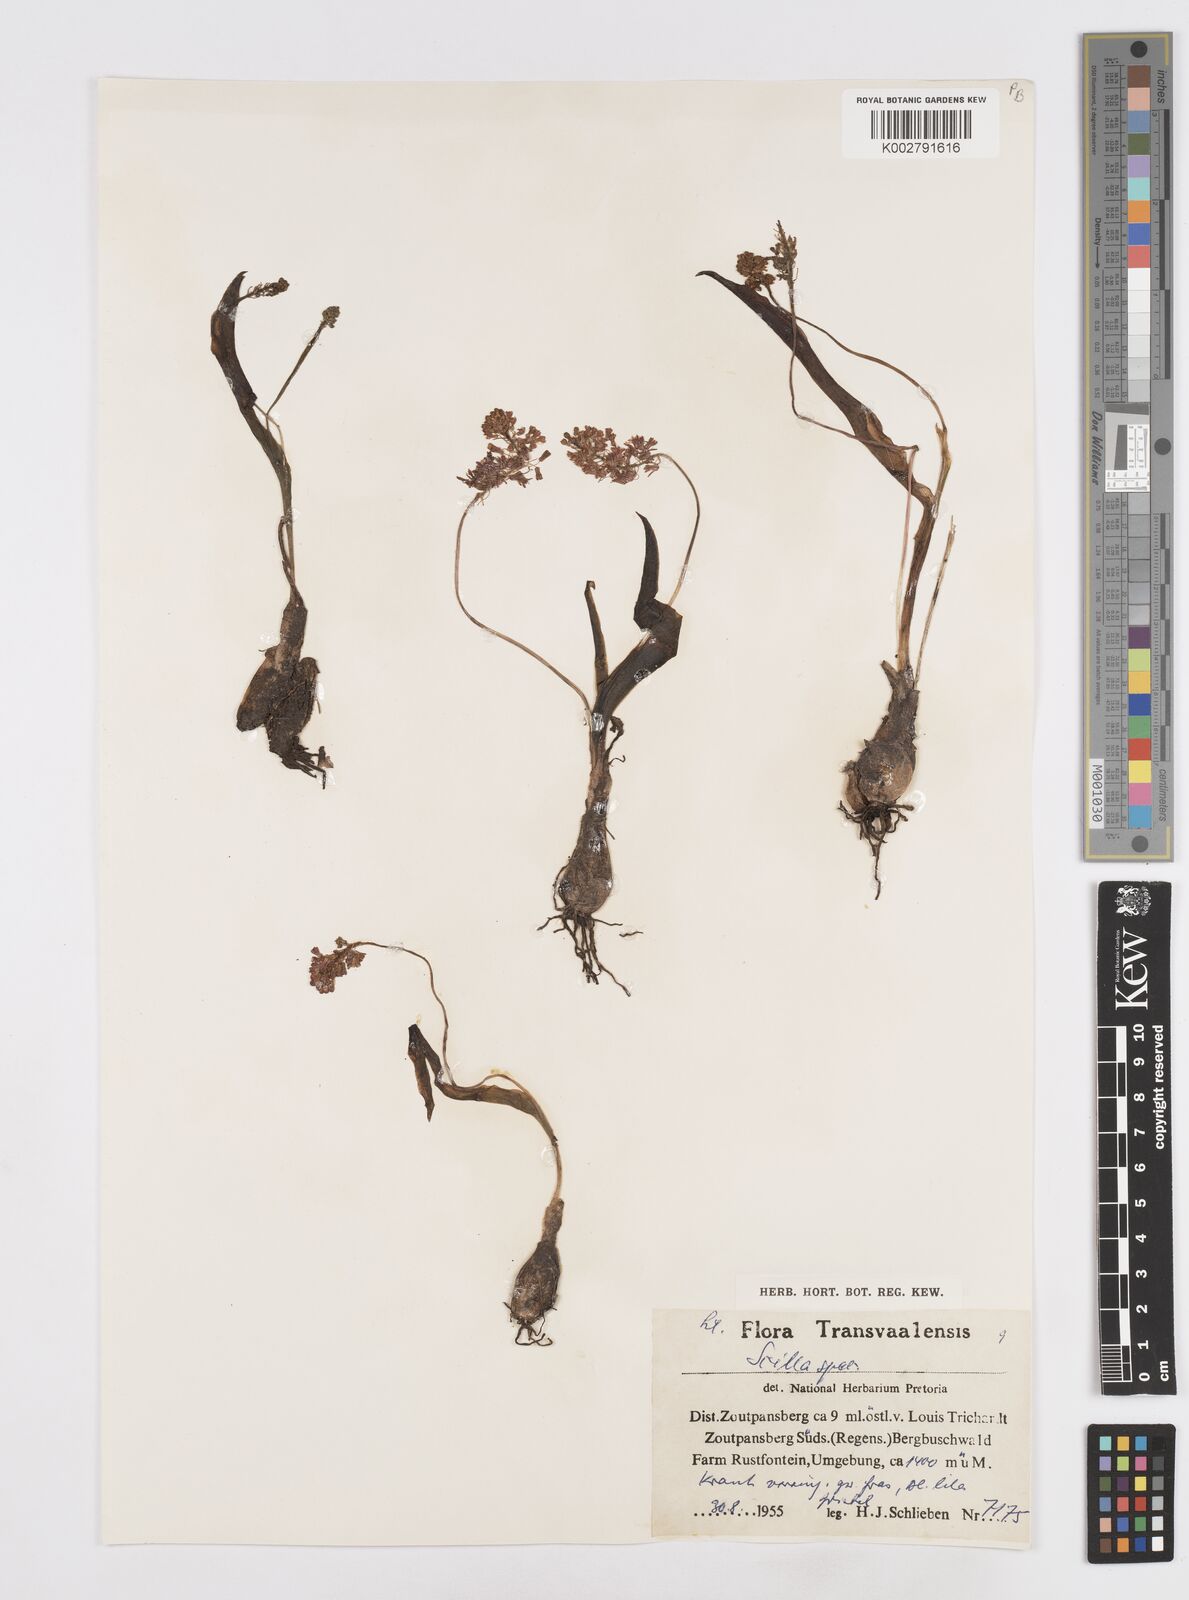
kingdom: Plantae
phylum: Tracheophyta
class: Liliopsida
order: Asparagales
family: Asparagaceae
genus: Scilla
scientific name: Scilla
